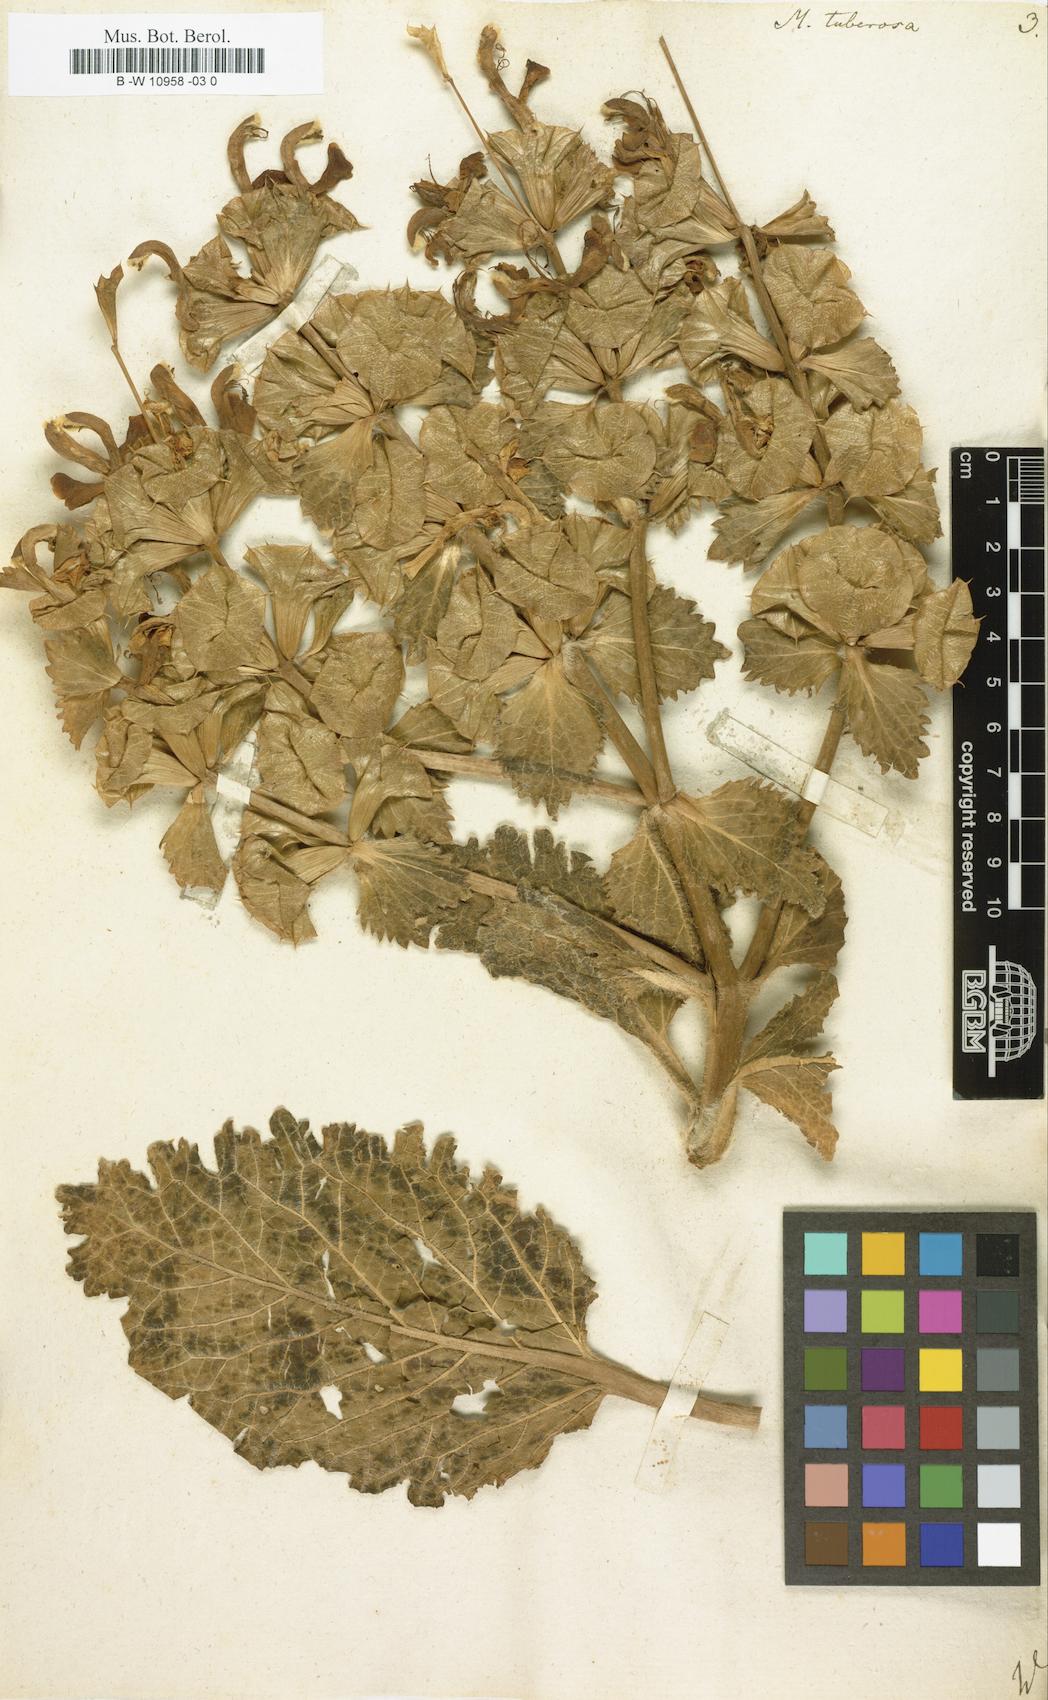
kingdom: Plantae
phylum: Tracheophyta
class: Magnoliopsida
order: Lamiales
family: Lamiaceae
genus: Moluccella
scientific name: Moluccella tuberosa
